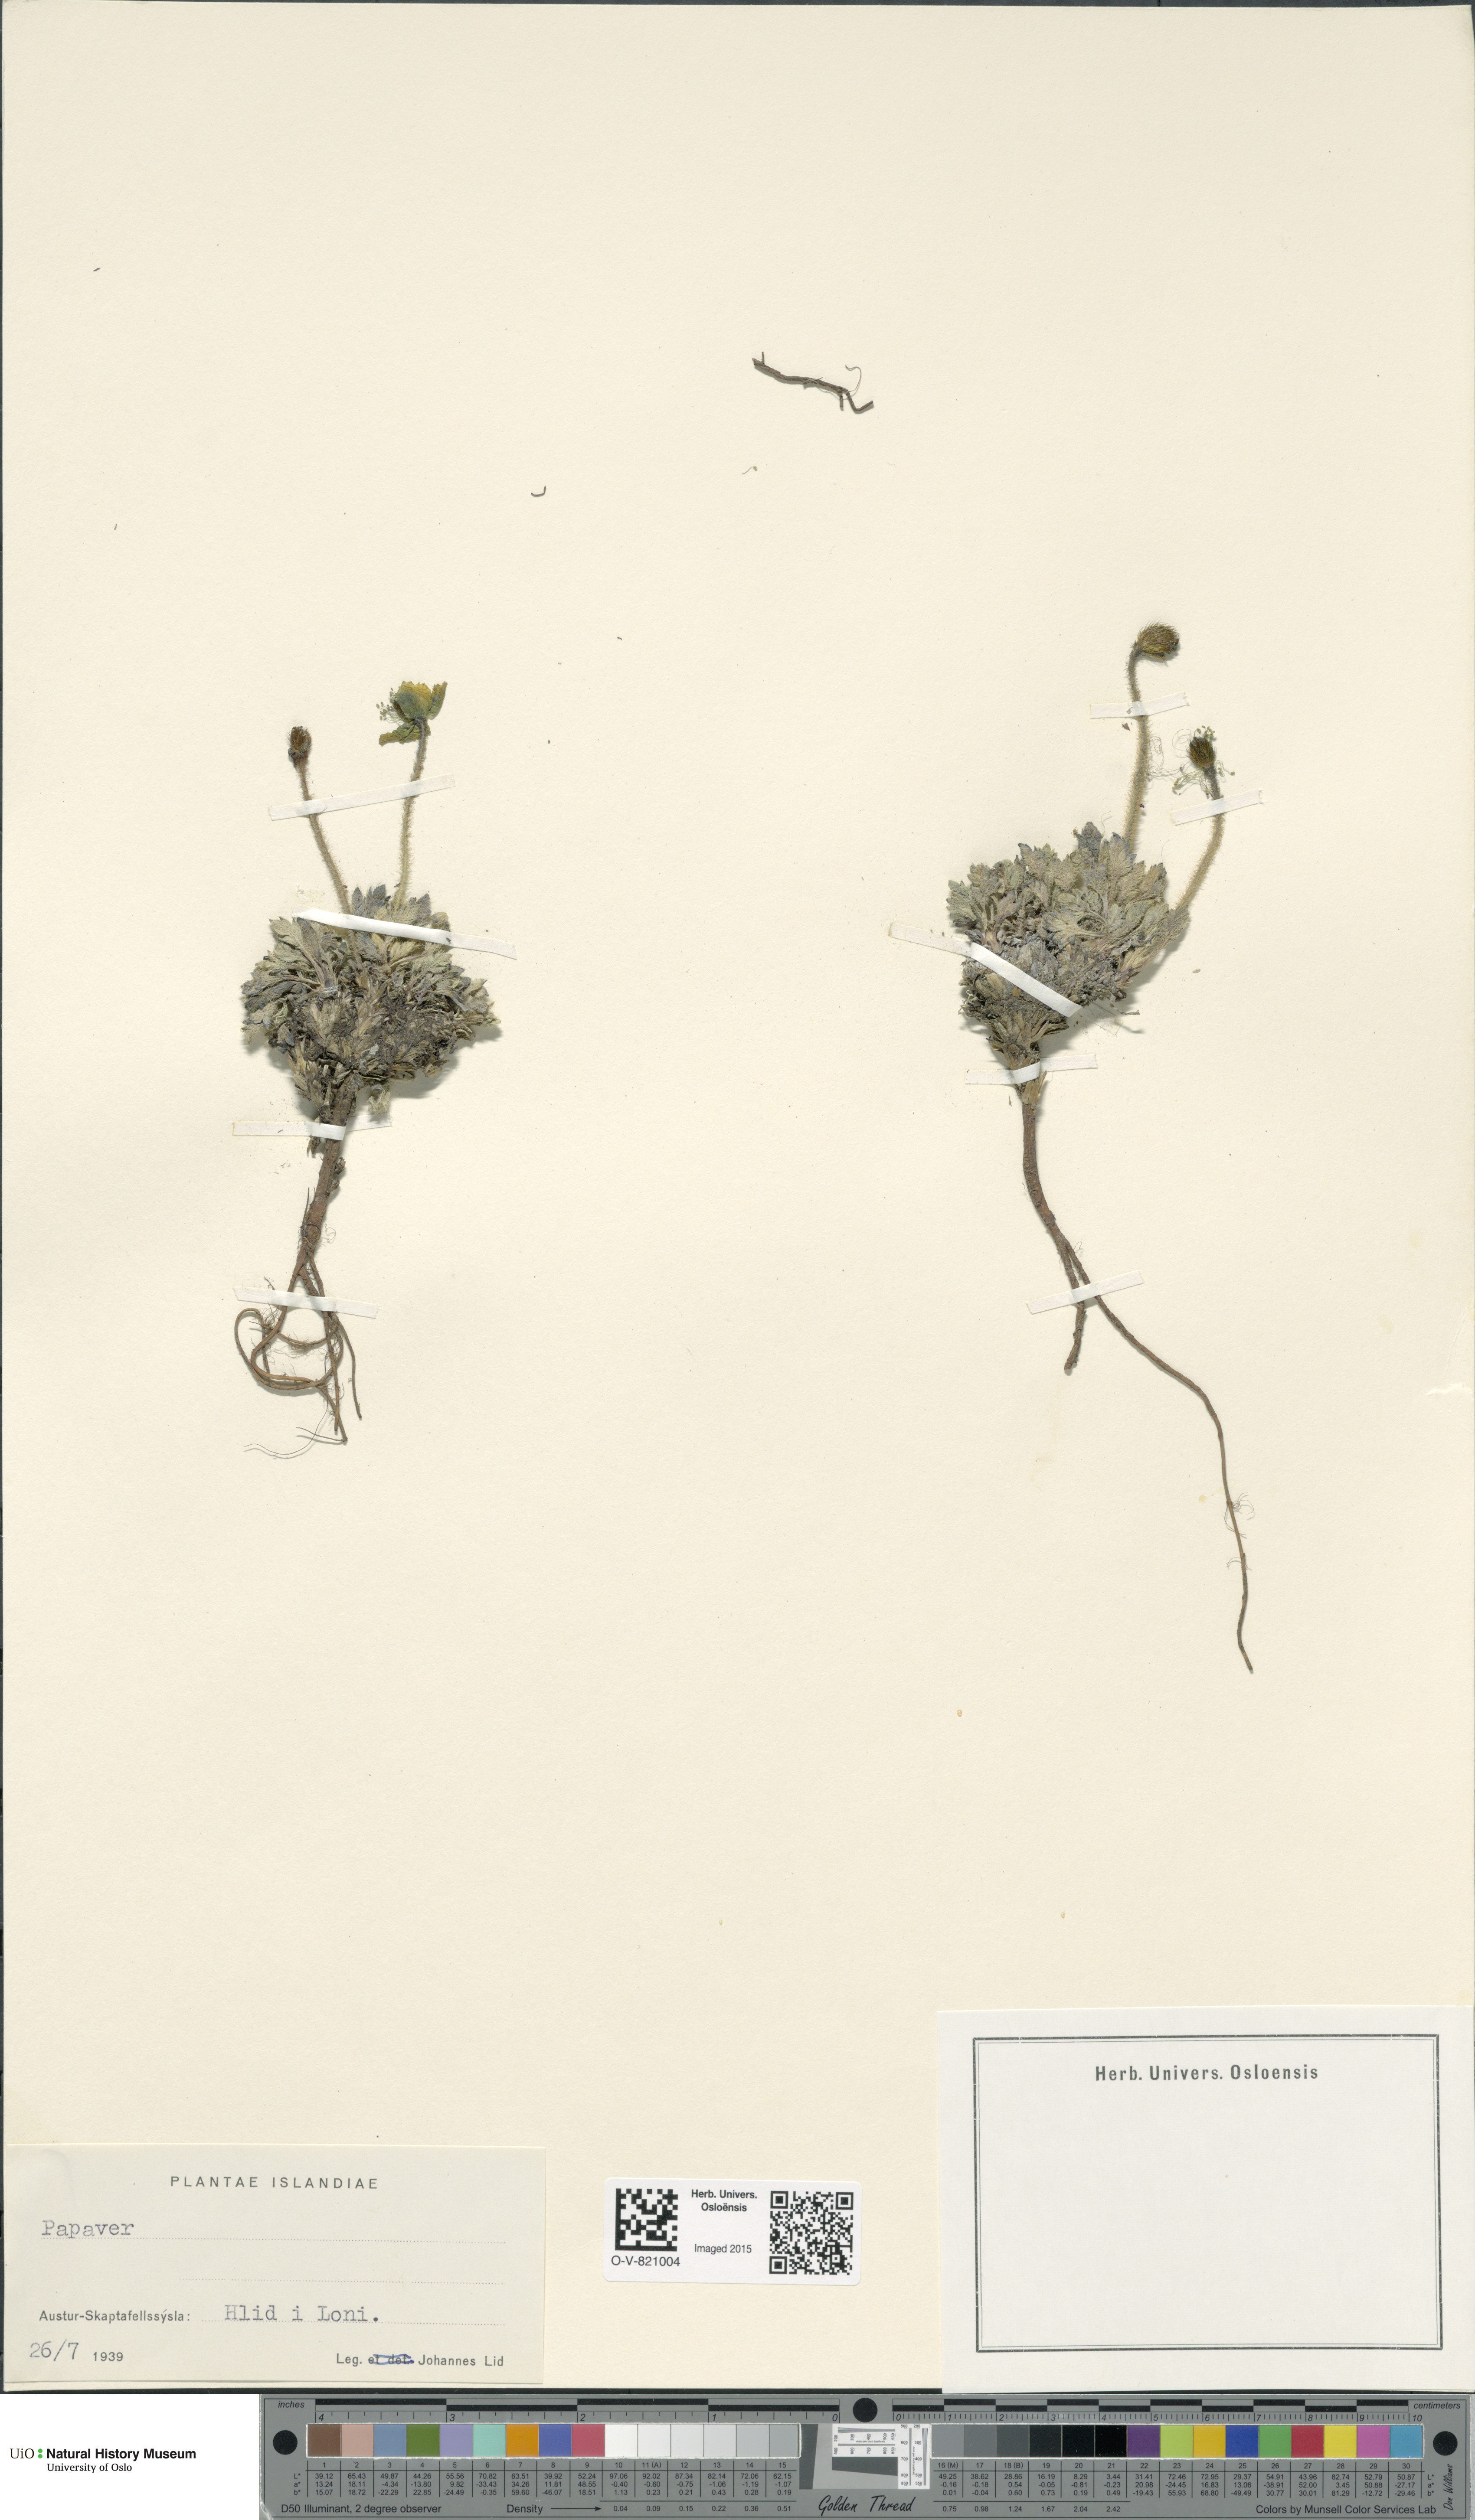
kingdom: Plantae
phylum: Tracheophyta
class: Magnoliopsida
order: Ranunculales
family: Papaveraceae
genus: Papaver
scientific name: Papaver radicatum
